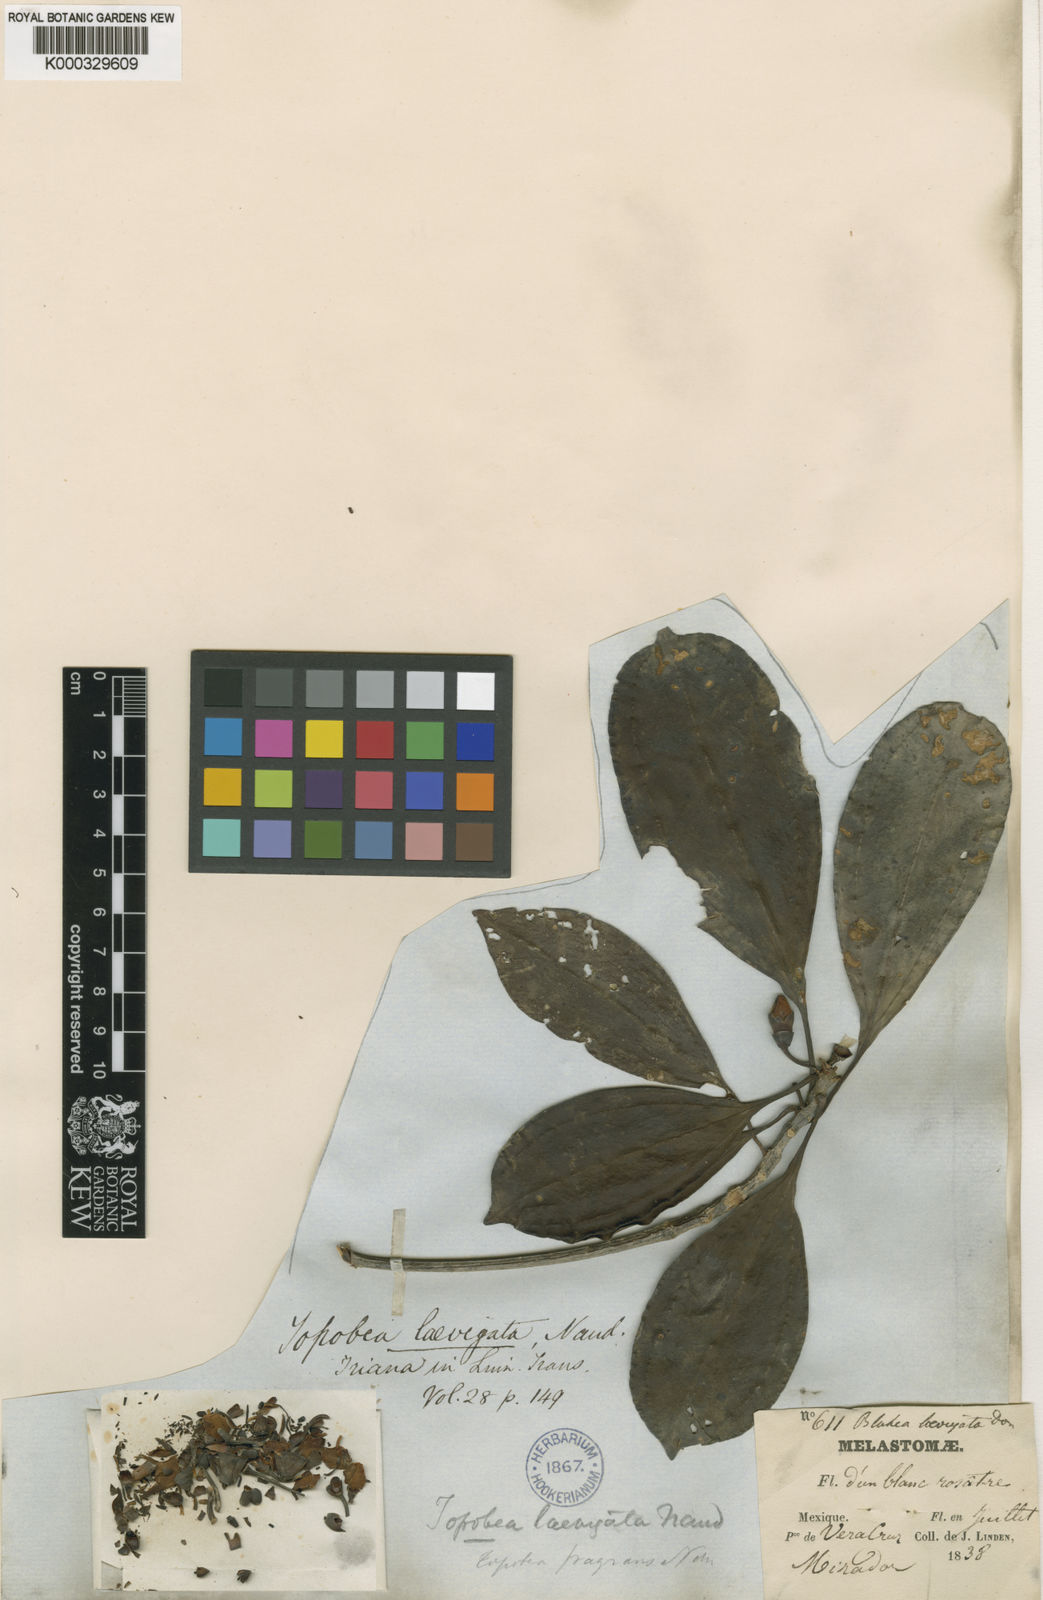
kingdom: Plantae
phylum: Tracheophyta
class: Magnoliopsida
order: Myrtales
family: Melastomataceae
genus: Blakea
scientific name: Blakea laevigata
